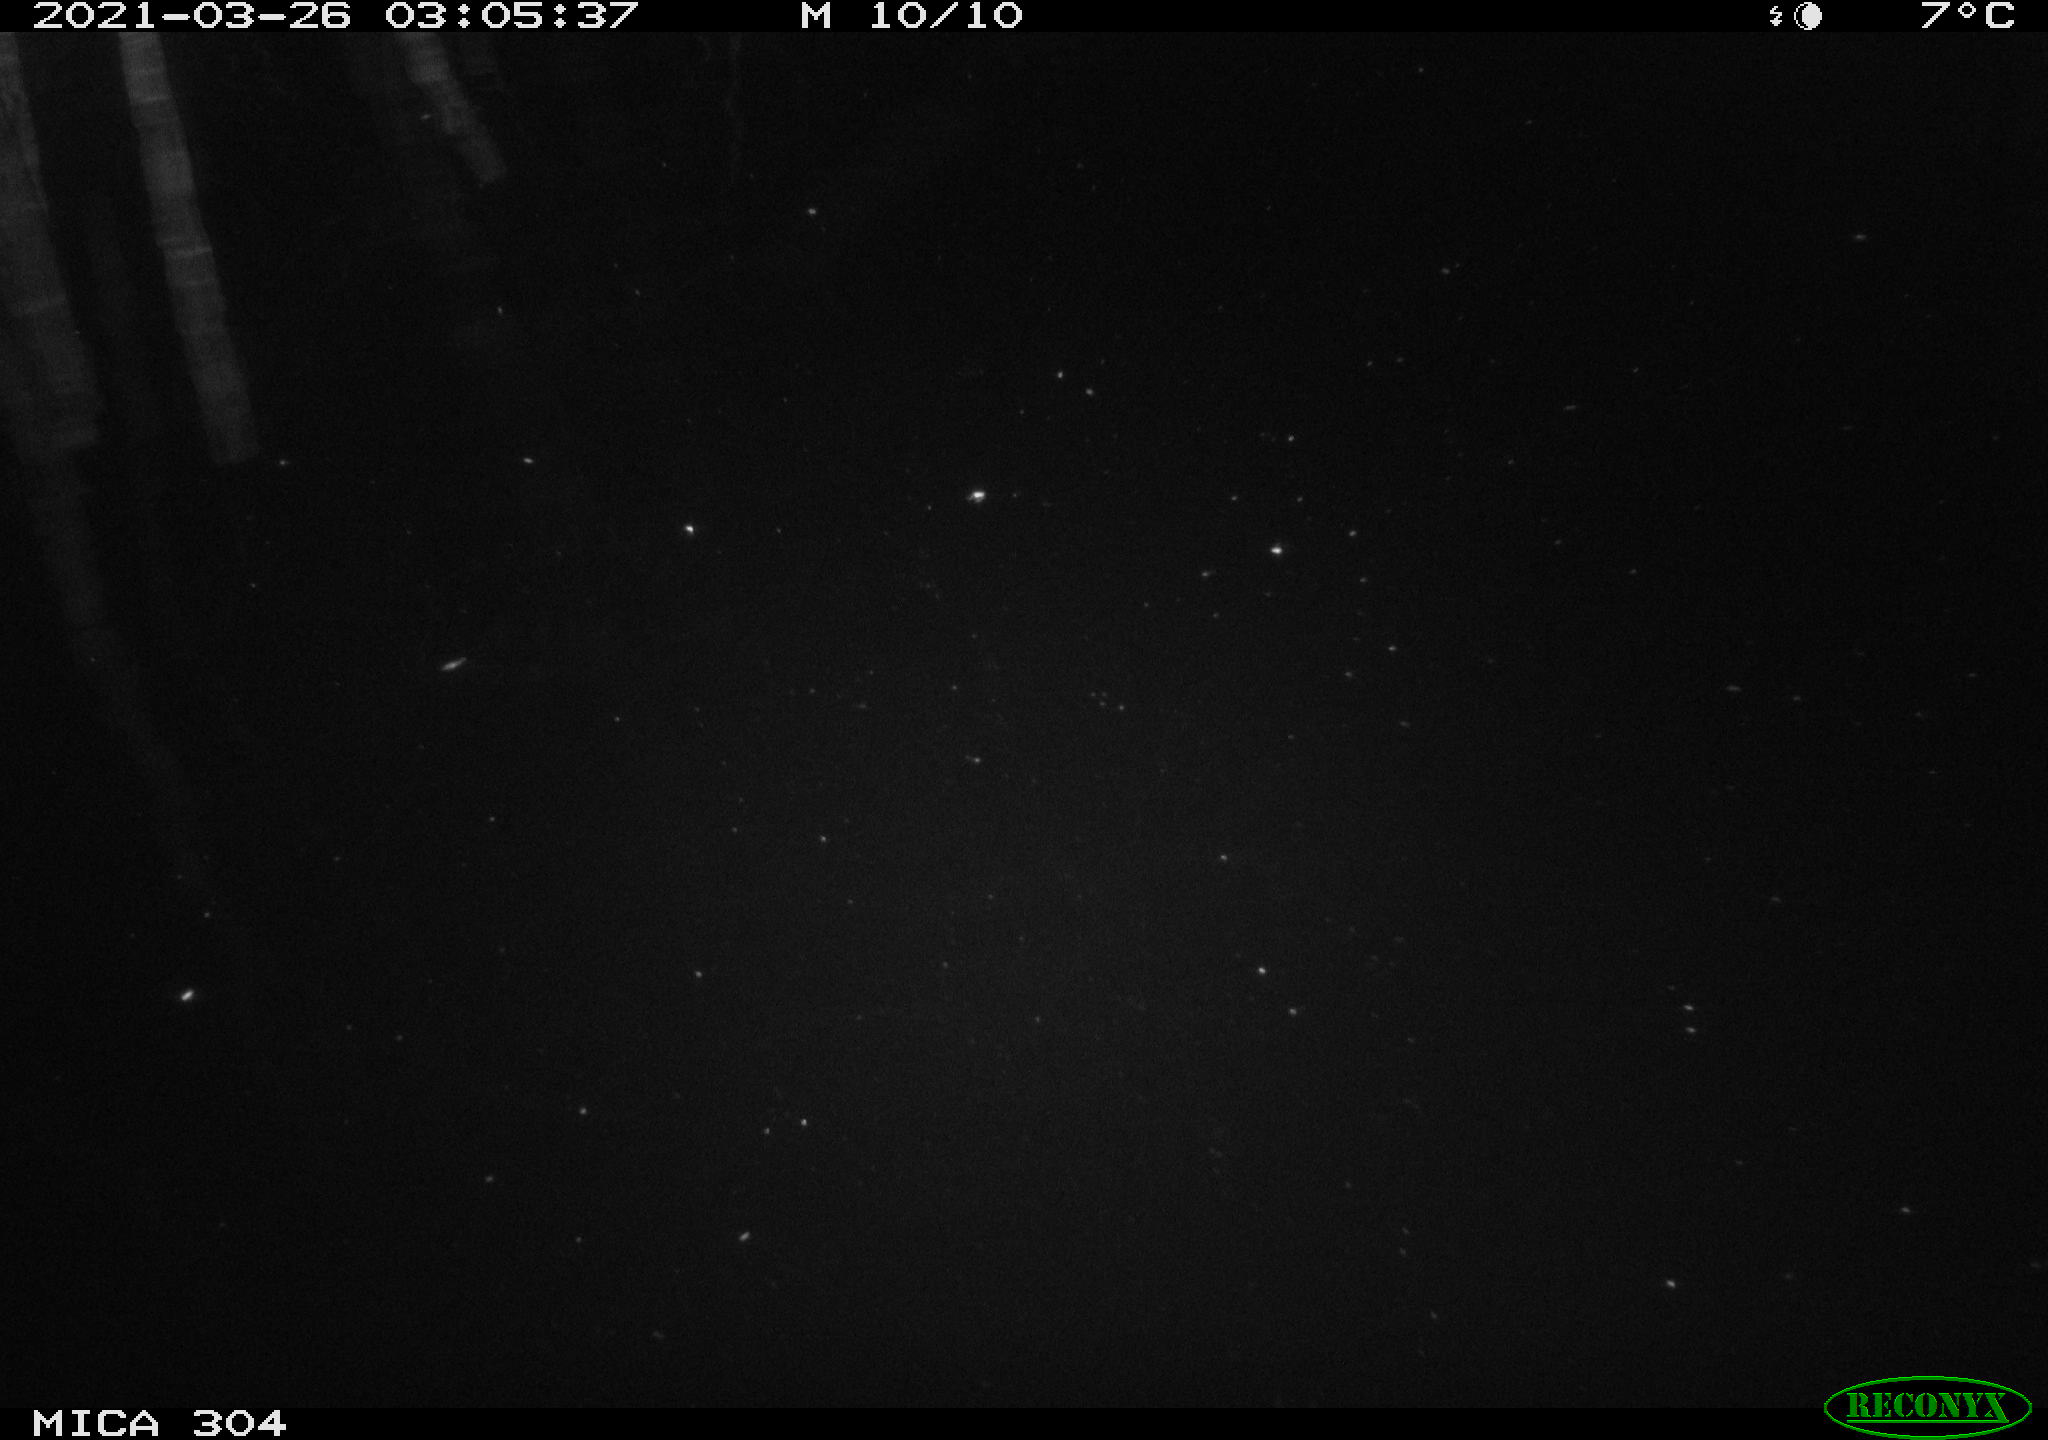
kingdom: Animalia
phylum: Chordata
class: Aves
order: Anseriformes
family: Anatidae
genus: Anas
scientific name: Anas platyrhynchos
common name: Mallard
